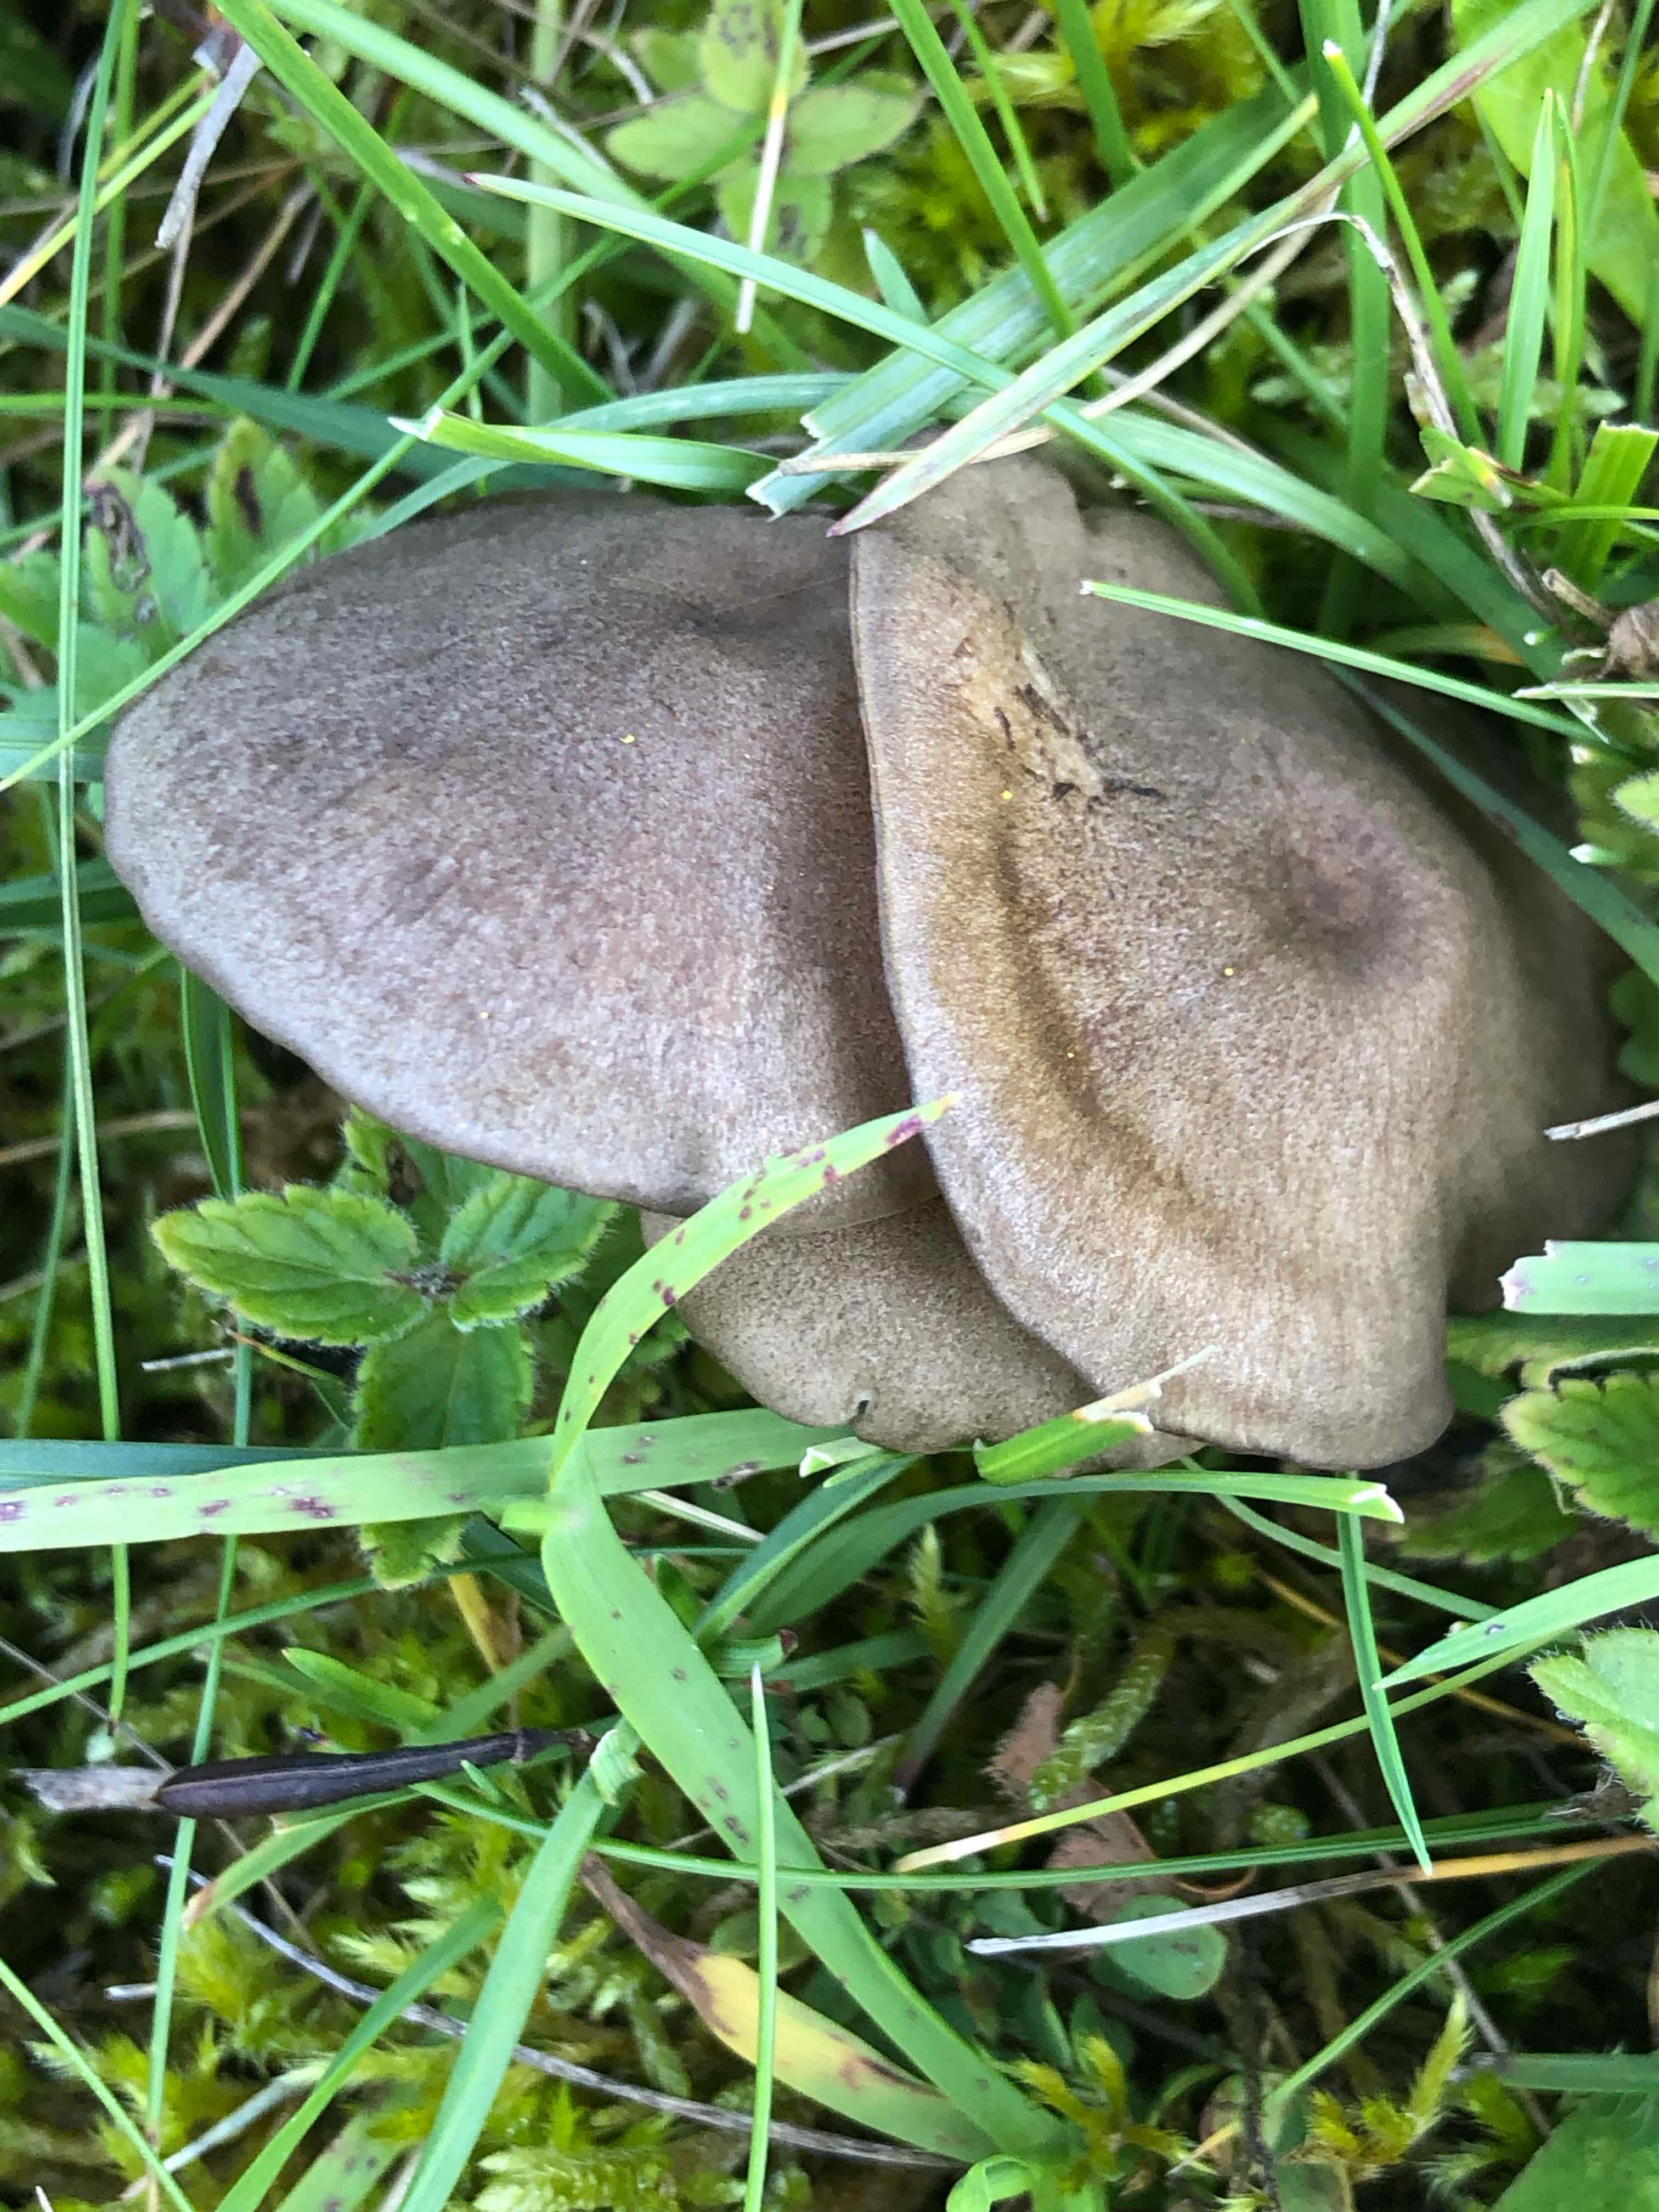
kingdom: Fungi
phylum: Basidiomycota
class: Agaricomycetes
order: Agaricales
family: Entolomataceae
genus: Entoloma
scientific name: Entoloma mougeotii
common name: violetgrå rødblad
